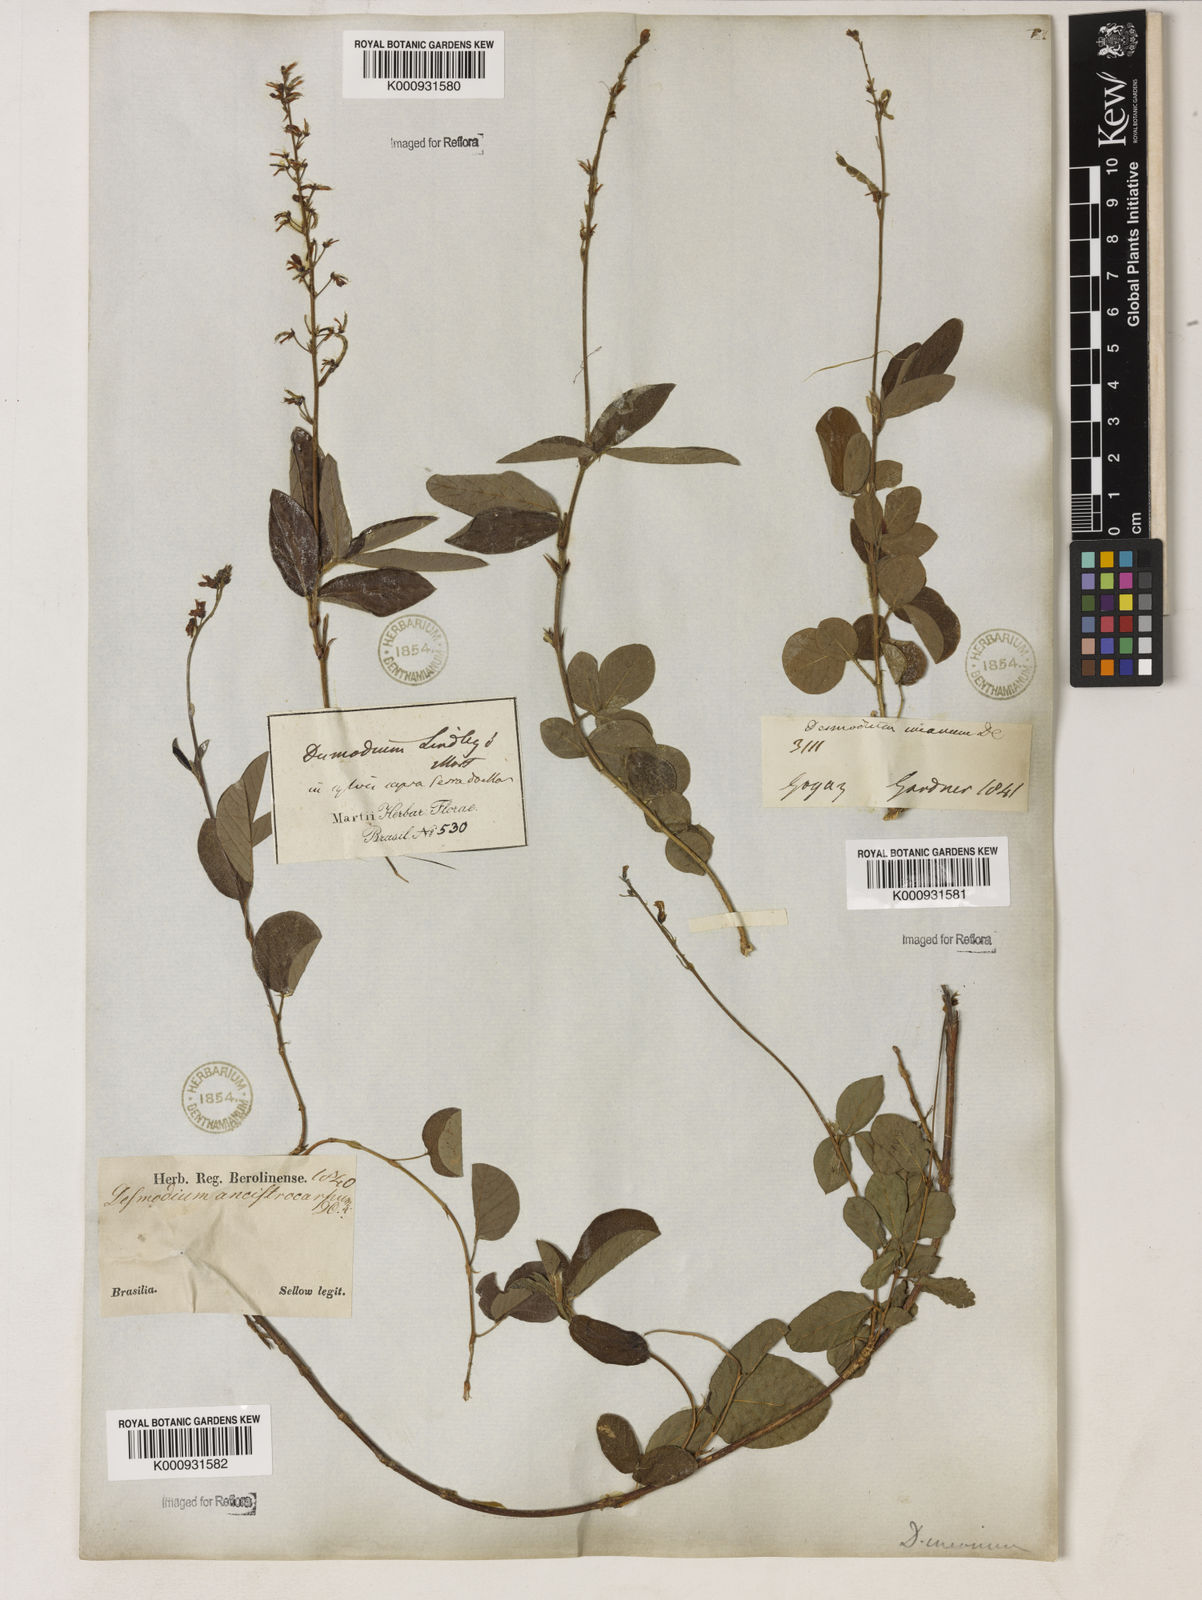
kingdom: Plantae
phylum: Tracheophyta
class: Magnoliopsida
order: Fabales
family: Fabaceae
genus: Desmodium
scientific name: Desmodium incanum
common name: Tickclover
